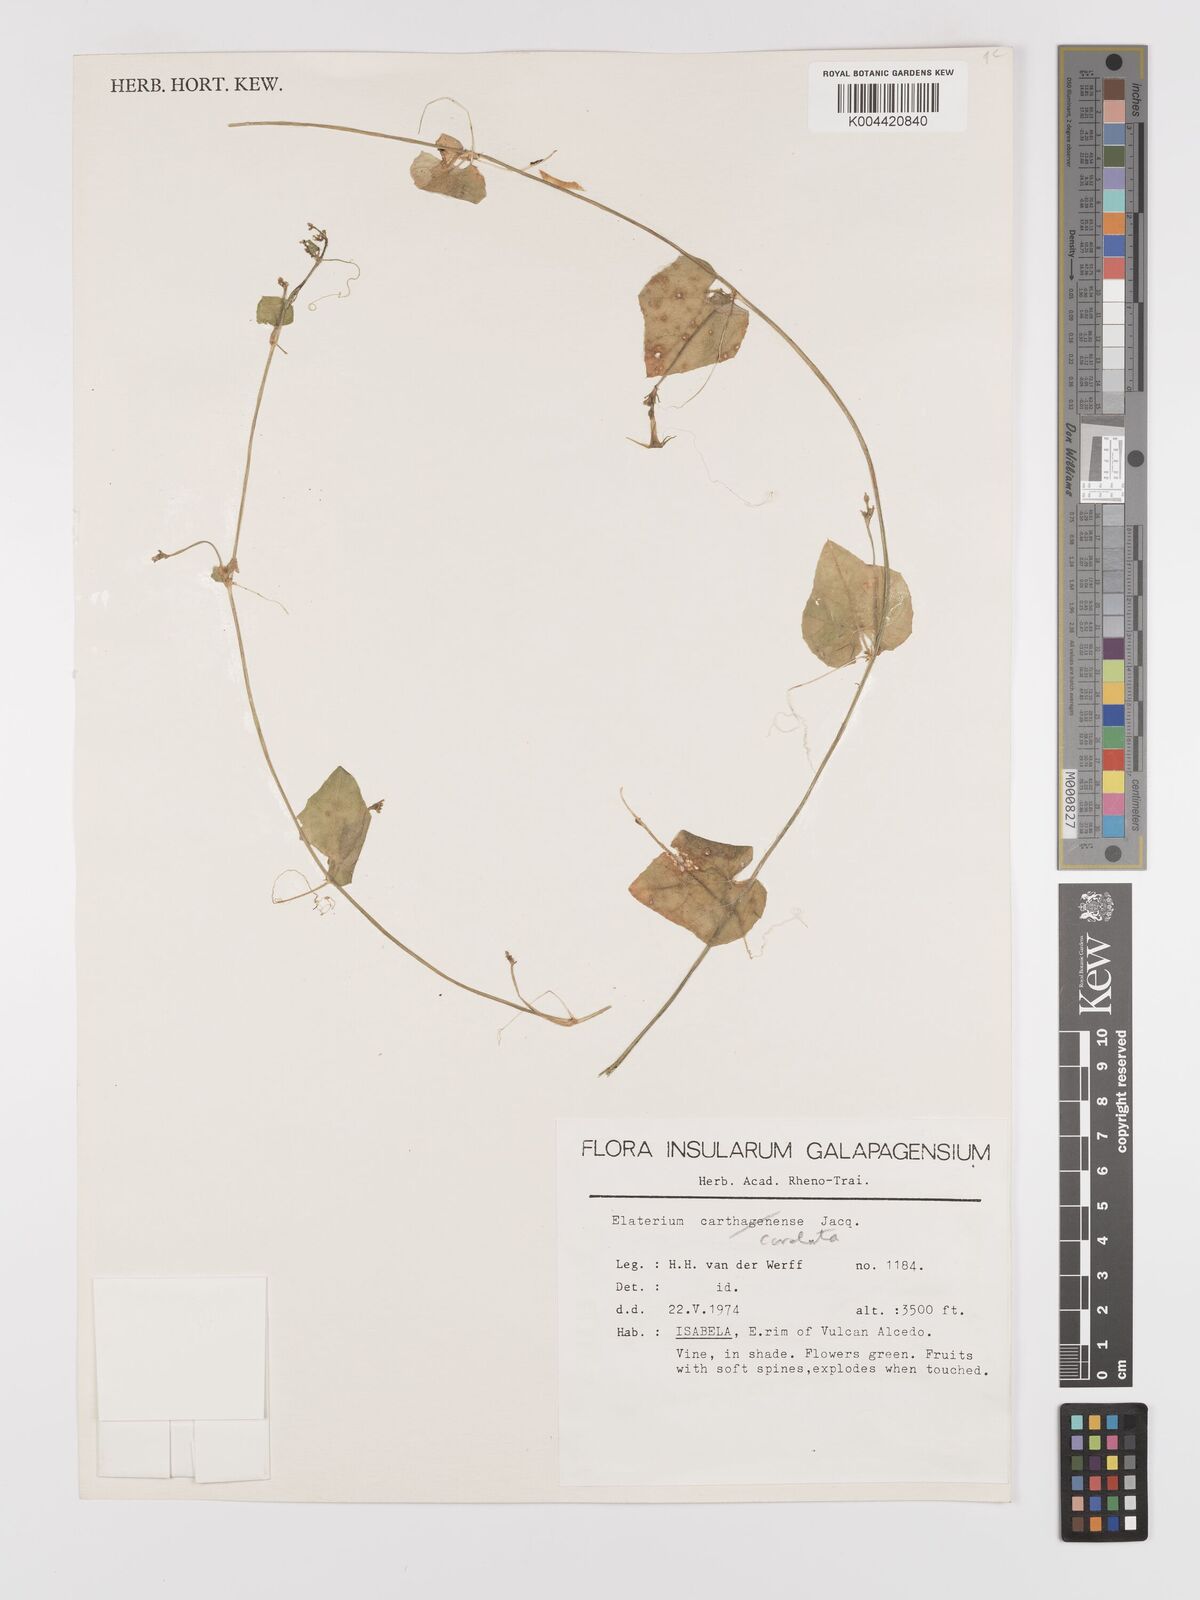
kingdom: Plantae
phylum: Tracheophyta
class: Magnoliopsida
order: Cucurbitales
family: Cucurbitaceae
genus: Cyclanthera
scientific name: Cyclanthera carthagenensis
